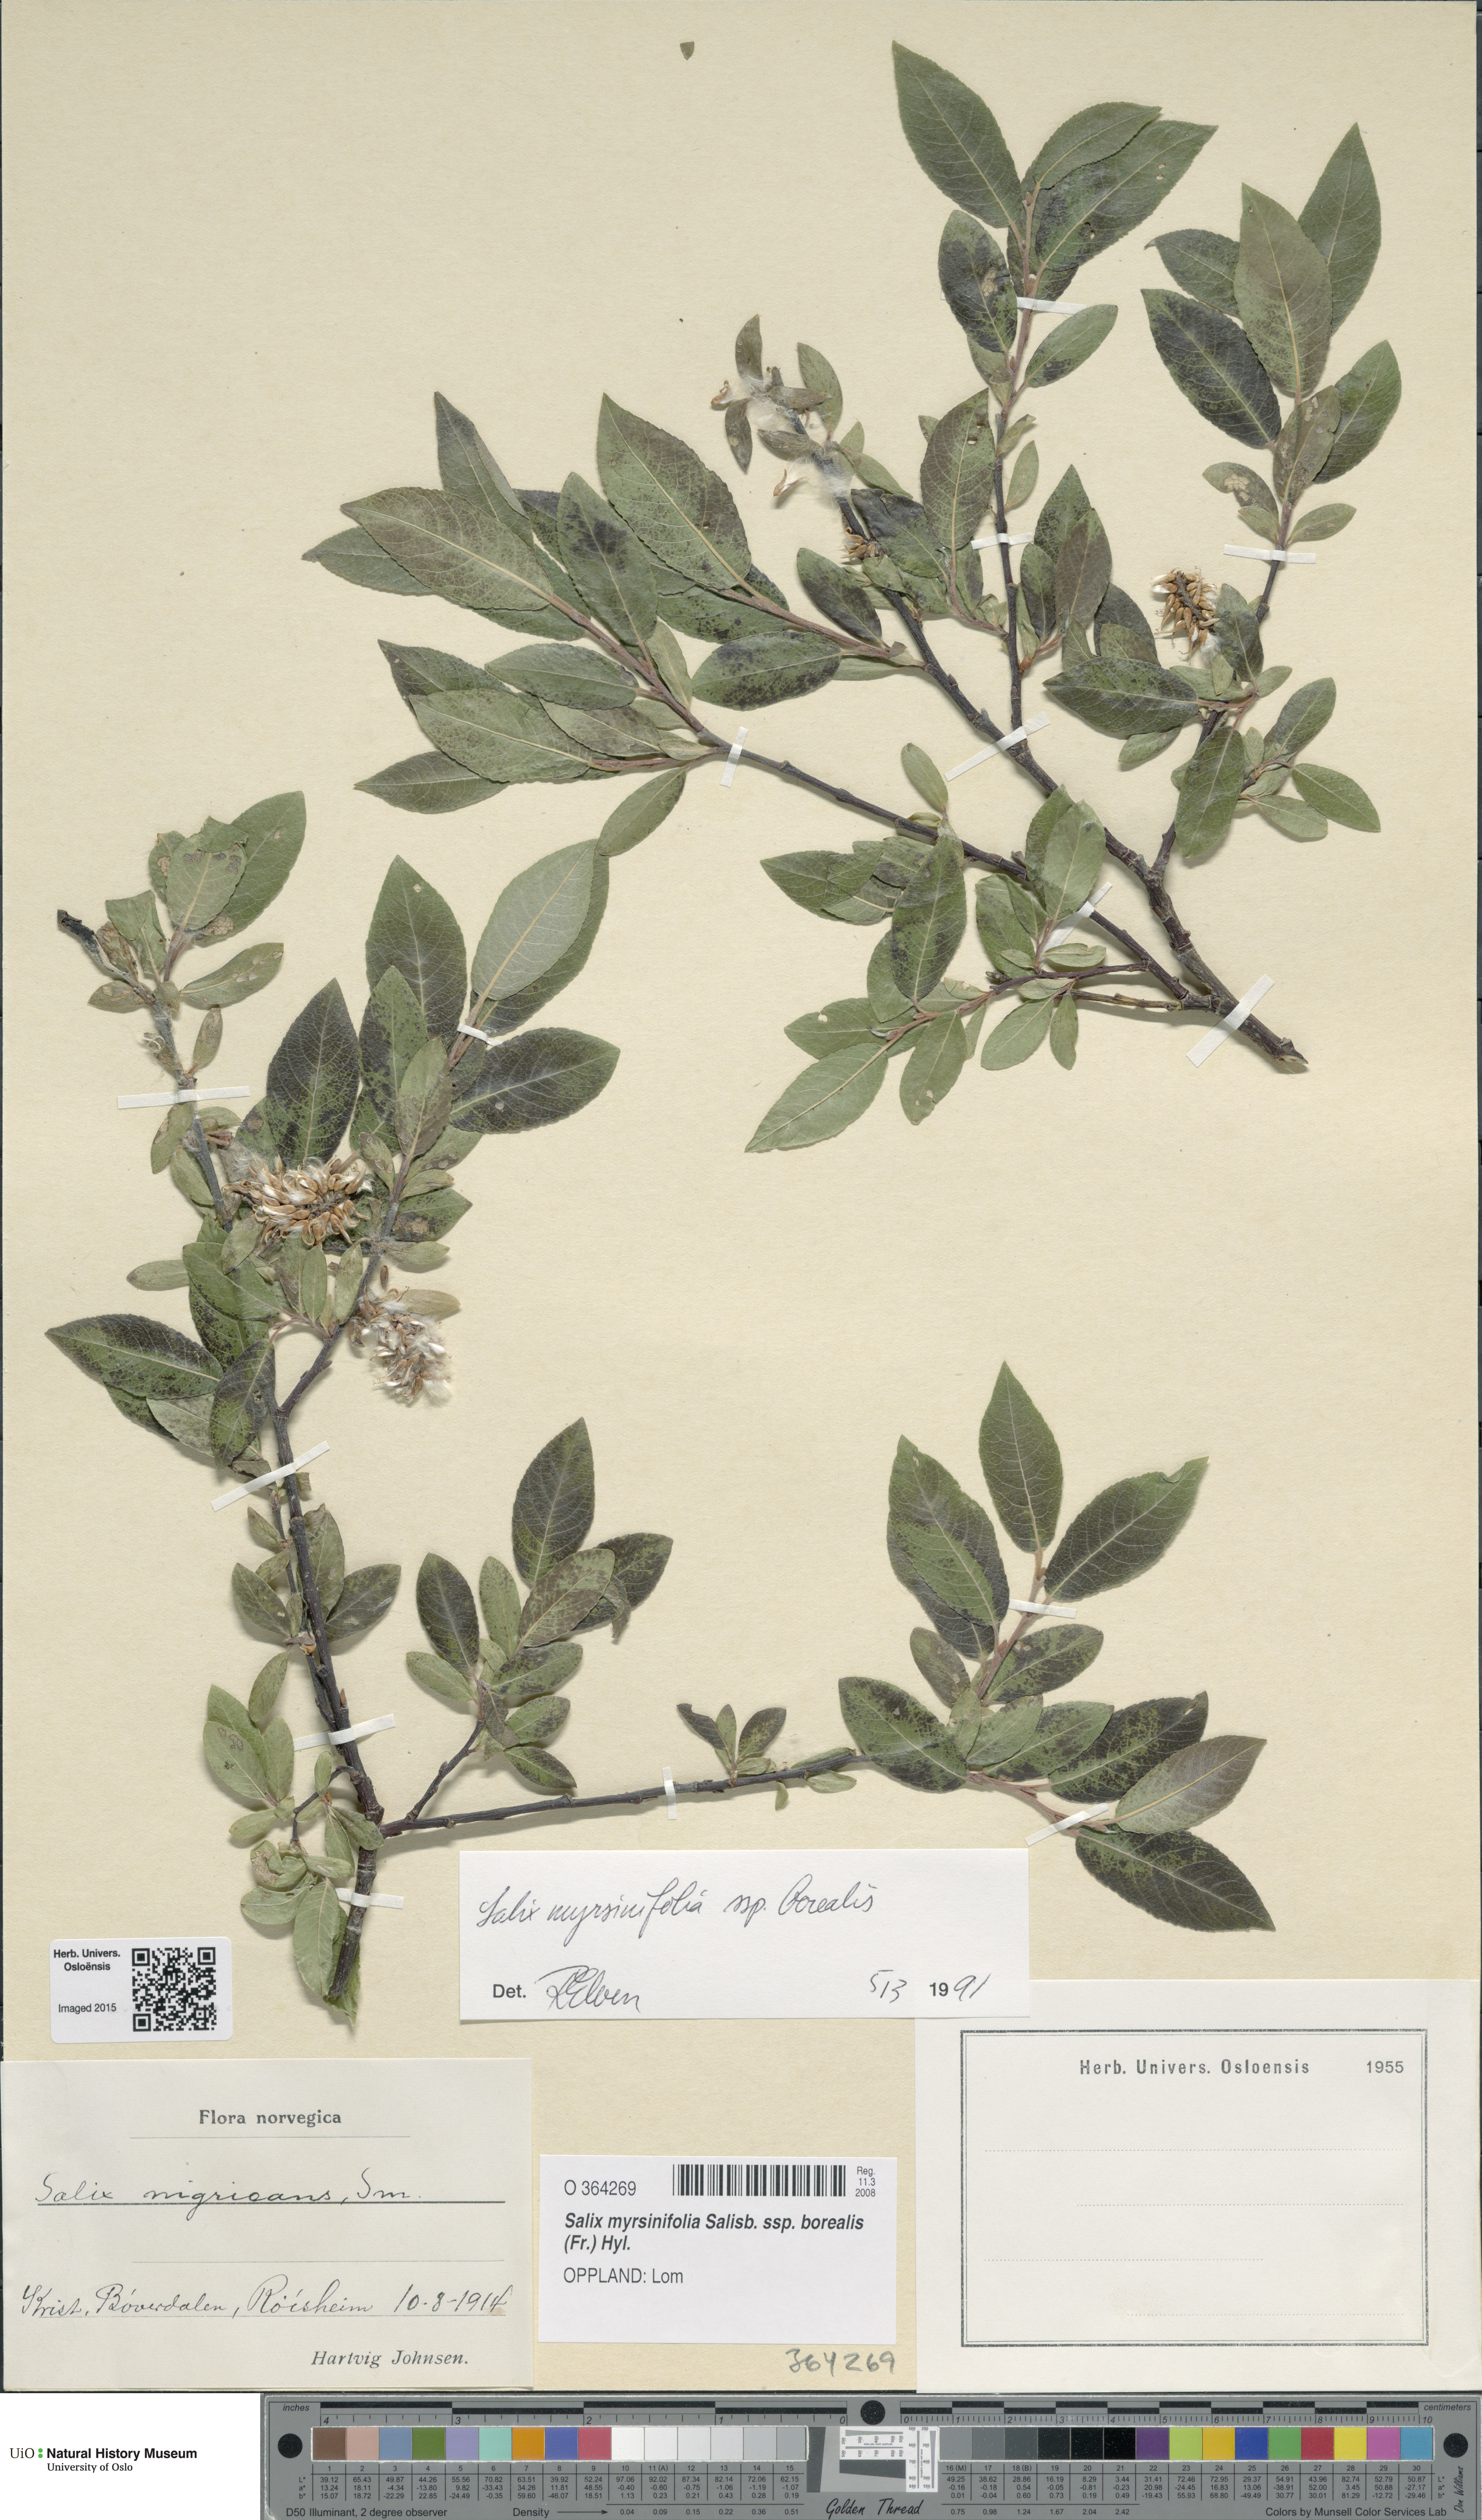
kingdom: Plantae
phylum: Tracheophyta
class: Magnoliopsida
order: Malpighiales
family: Salicaceae
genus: Salix
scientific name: Salix myrsinifolia
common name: Dark-leaved willow
